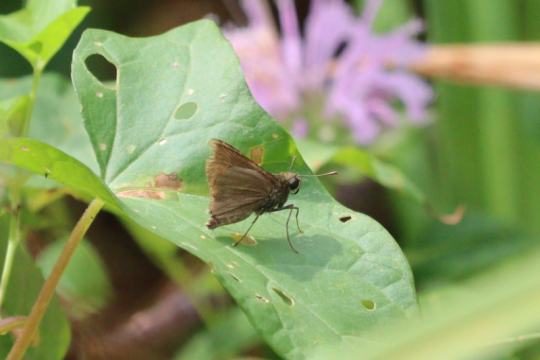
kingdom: Animalia
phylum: Arthropoda
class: Insecta
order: Lepidoptera
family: Hesperiidae
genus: Euphyes
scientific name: Euphyes vestris
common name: Dun Skipper
